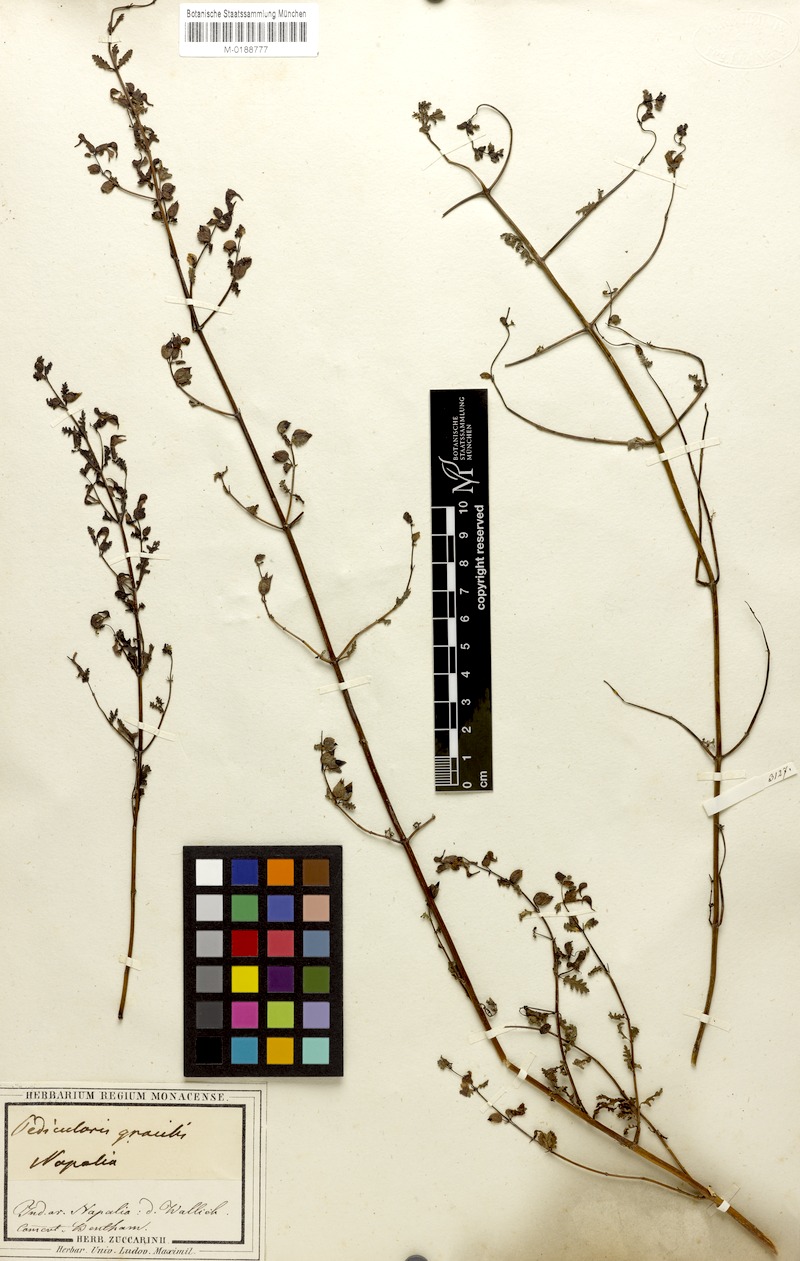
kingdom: Plantae
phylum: Tracheophyta
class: Magnoliopsida
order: Lamiales
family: Orobanchaceae
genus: Pedicularis
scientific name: Pedicularis gracilis
